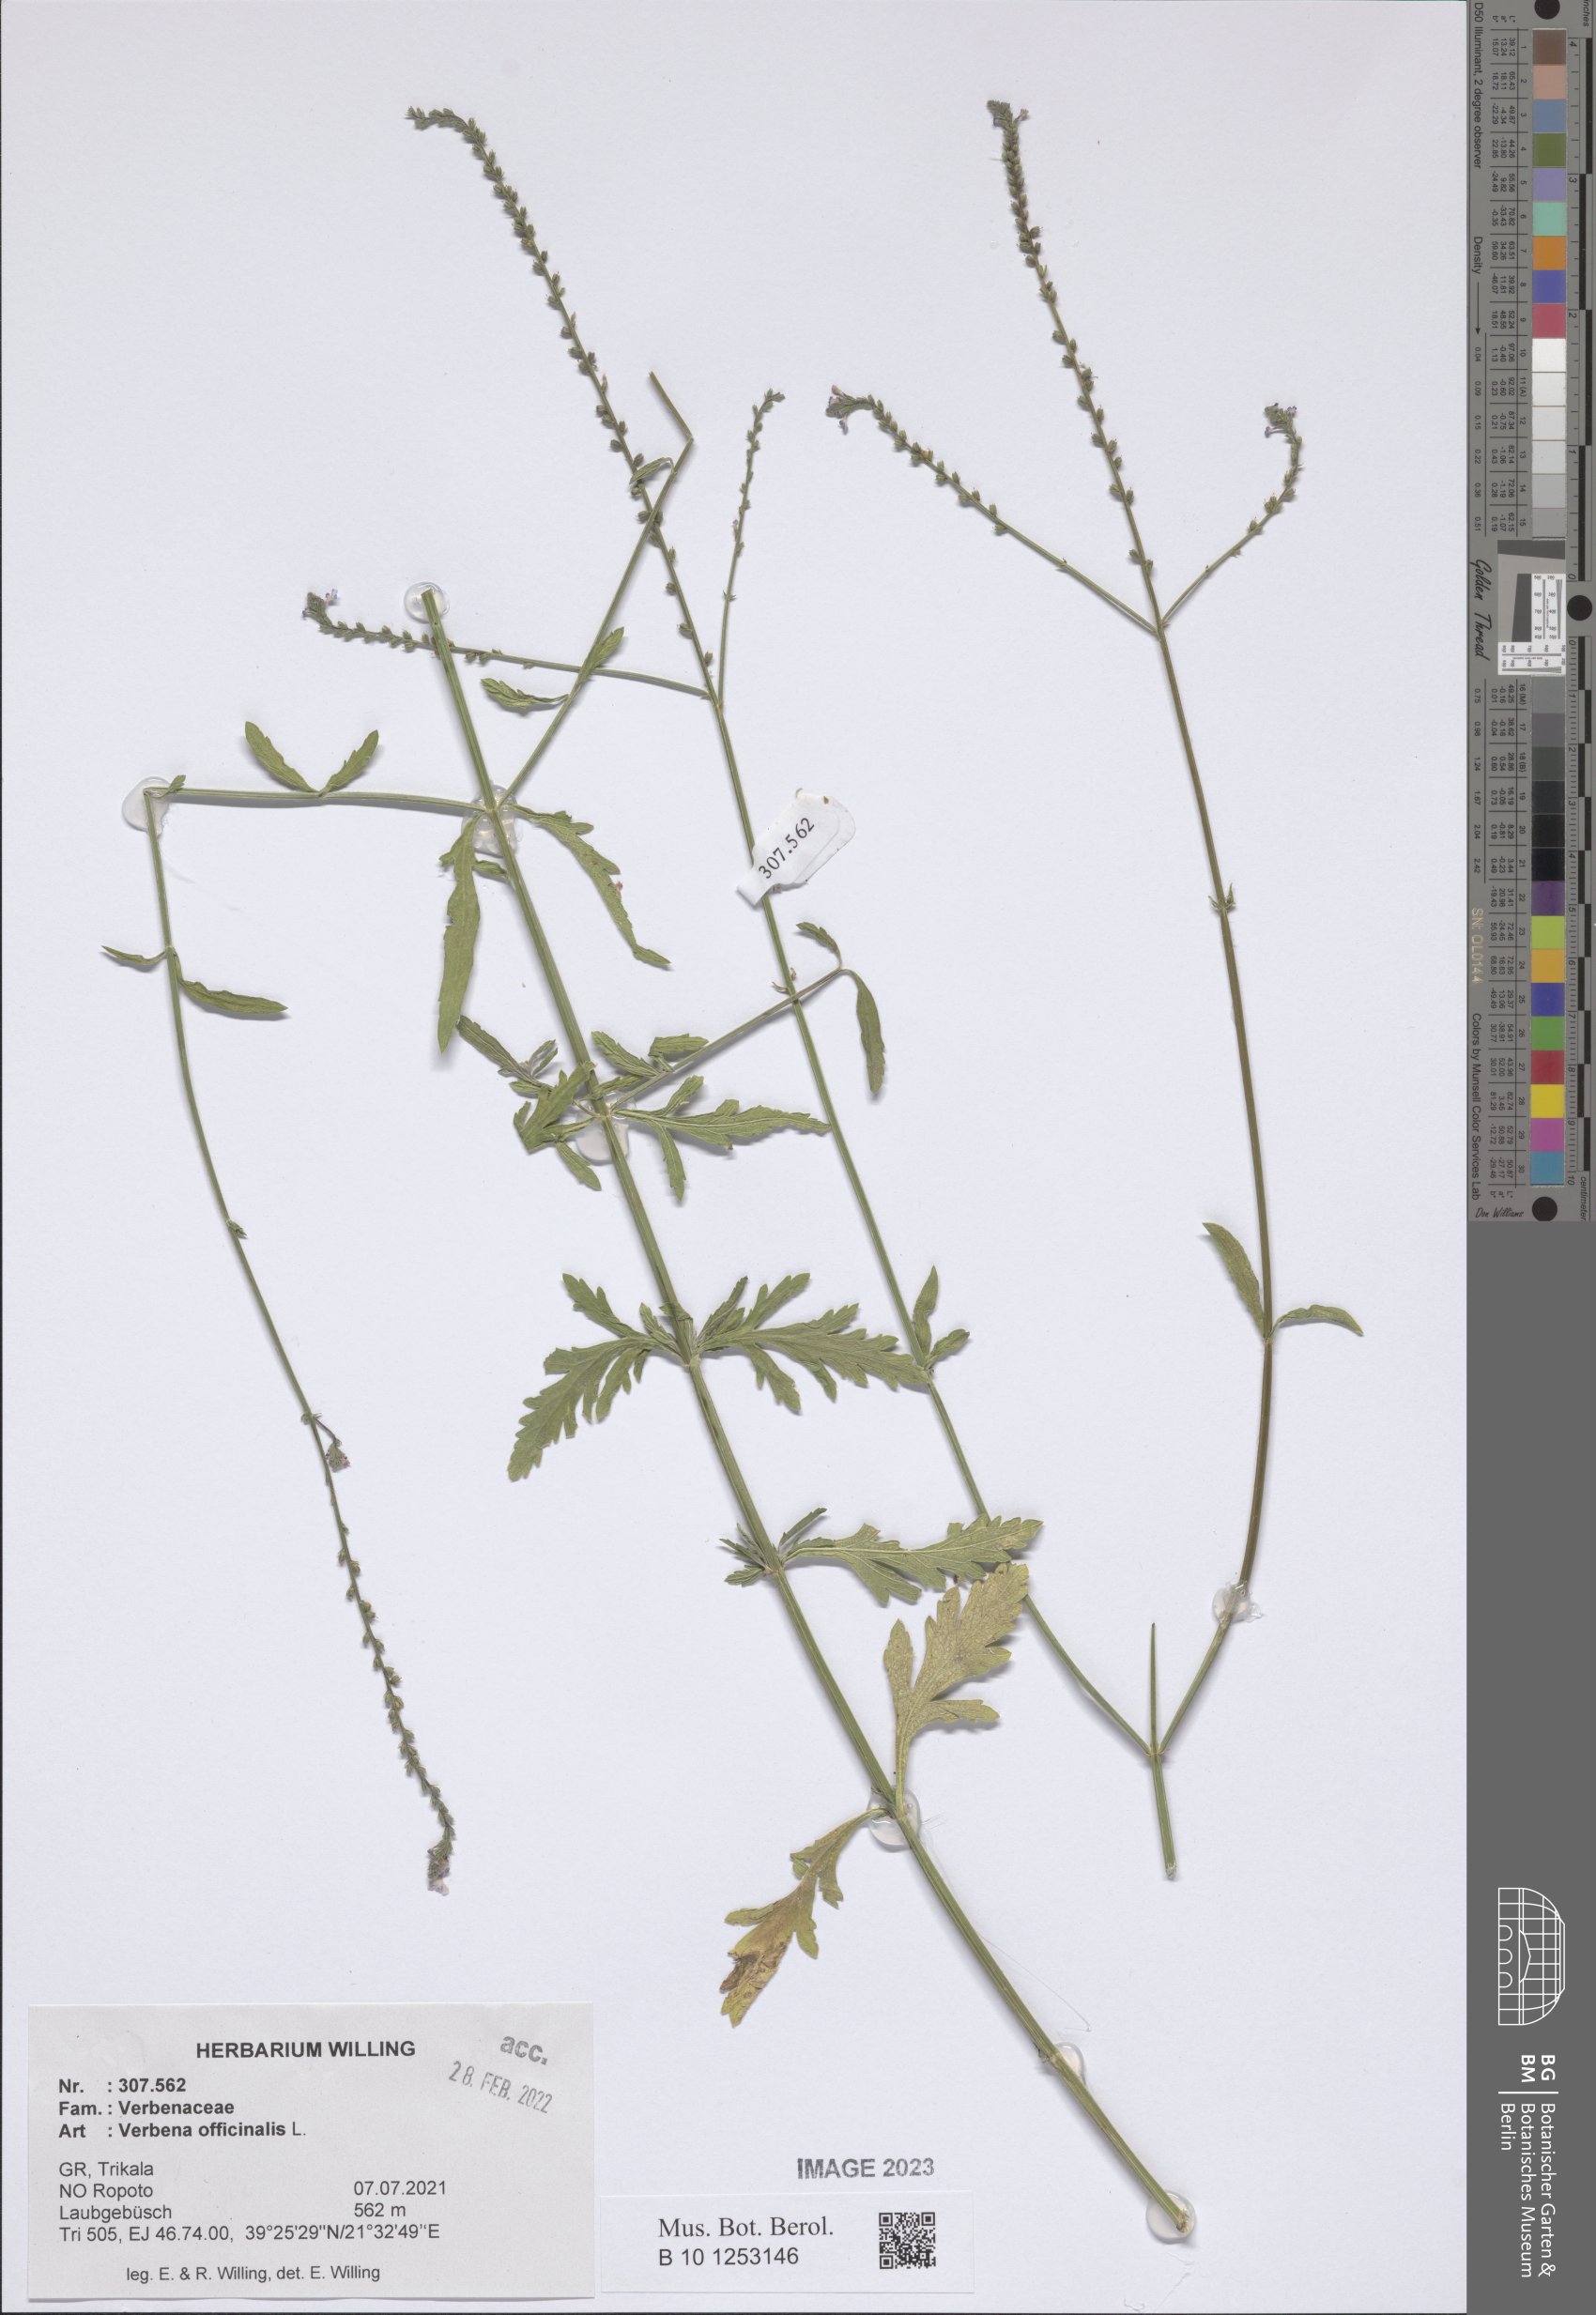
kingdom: Plantae
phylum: Tracheophyta
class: Magnoliopsida
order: Lamiales
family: Verbenaceae
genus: Verbena
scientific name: Verbena officinalis
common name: Vervain
